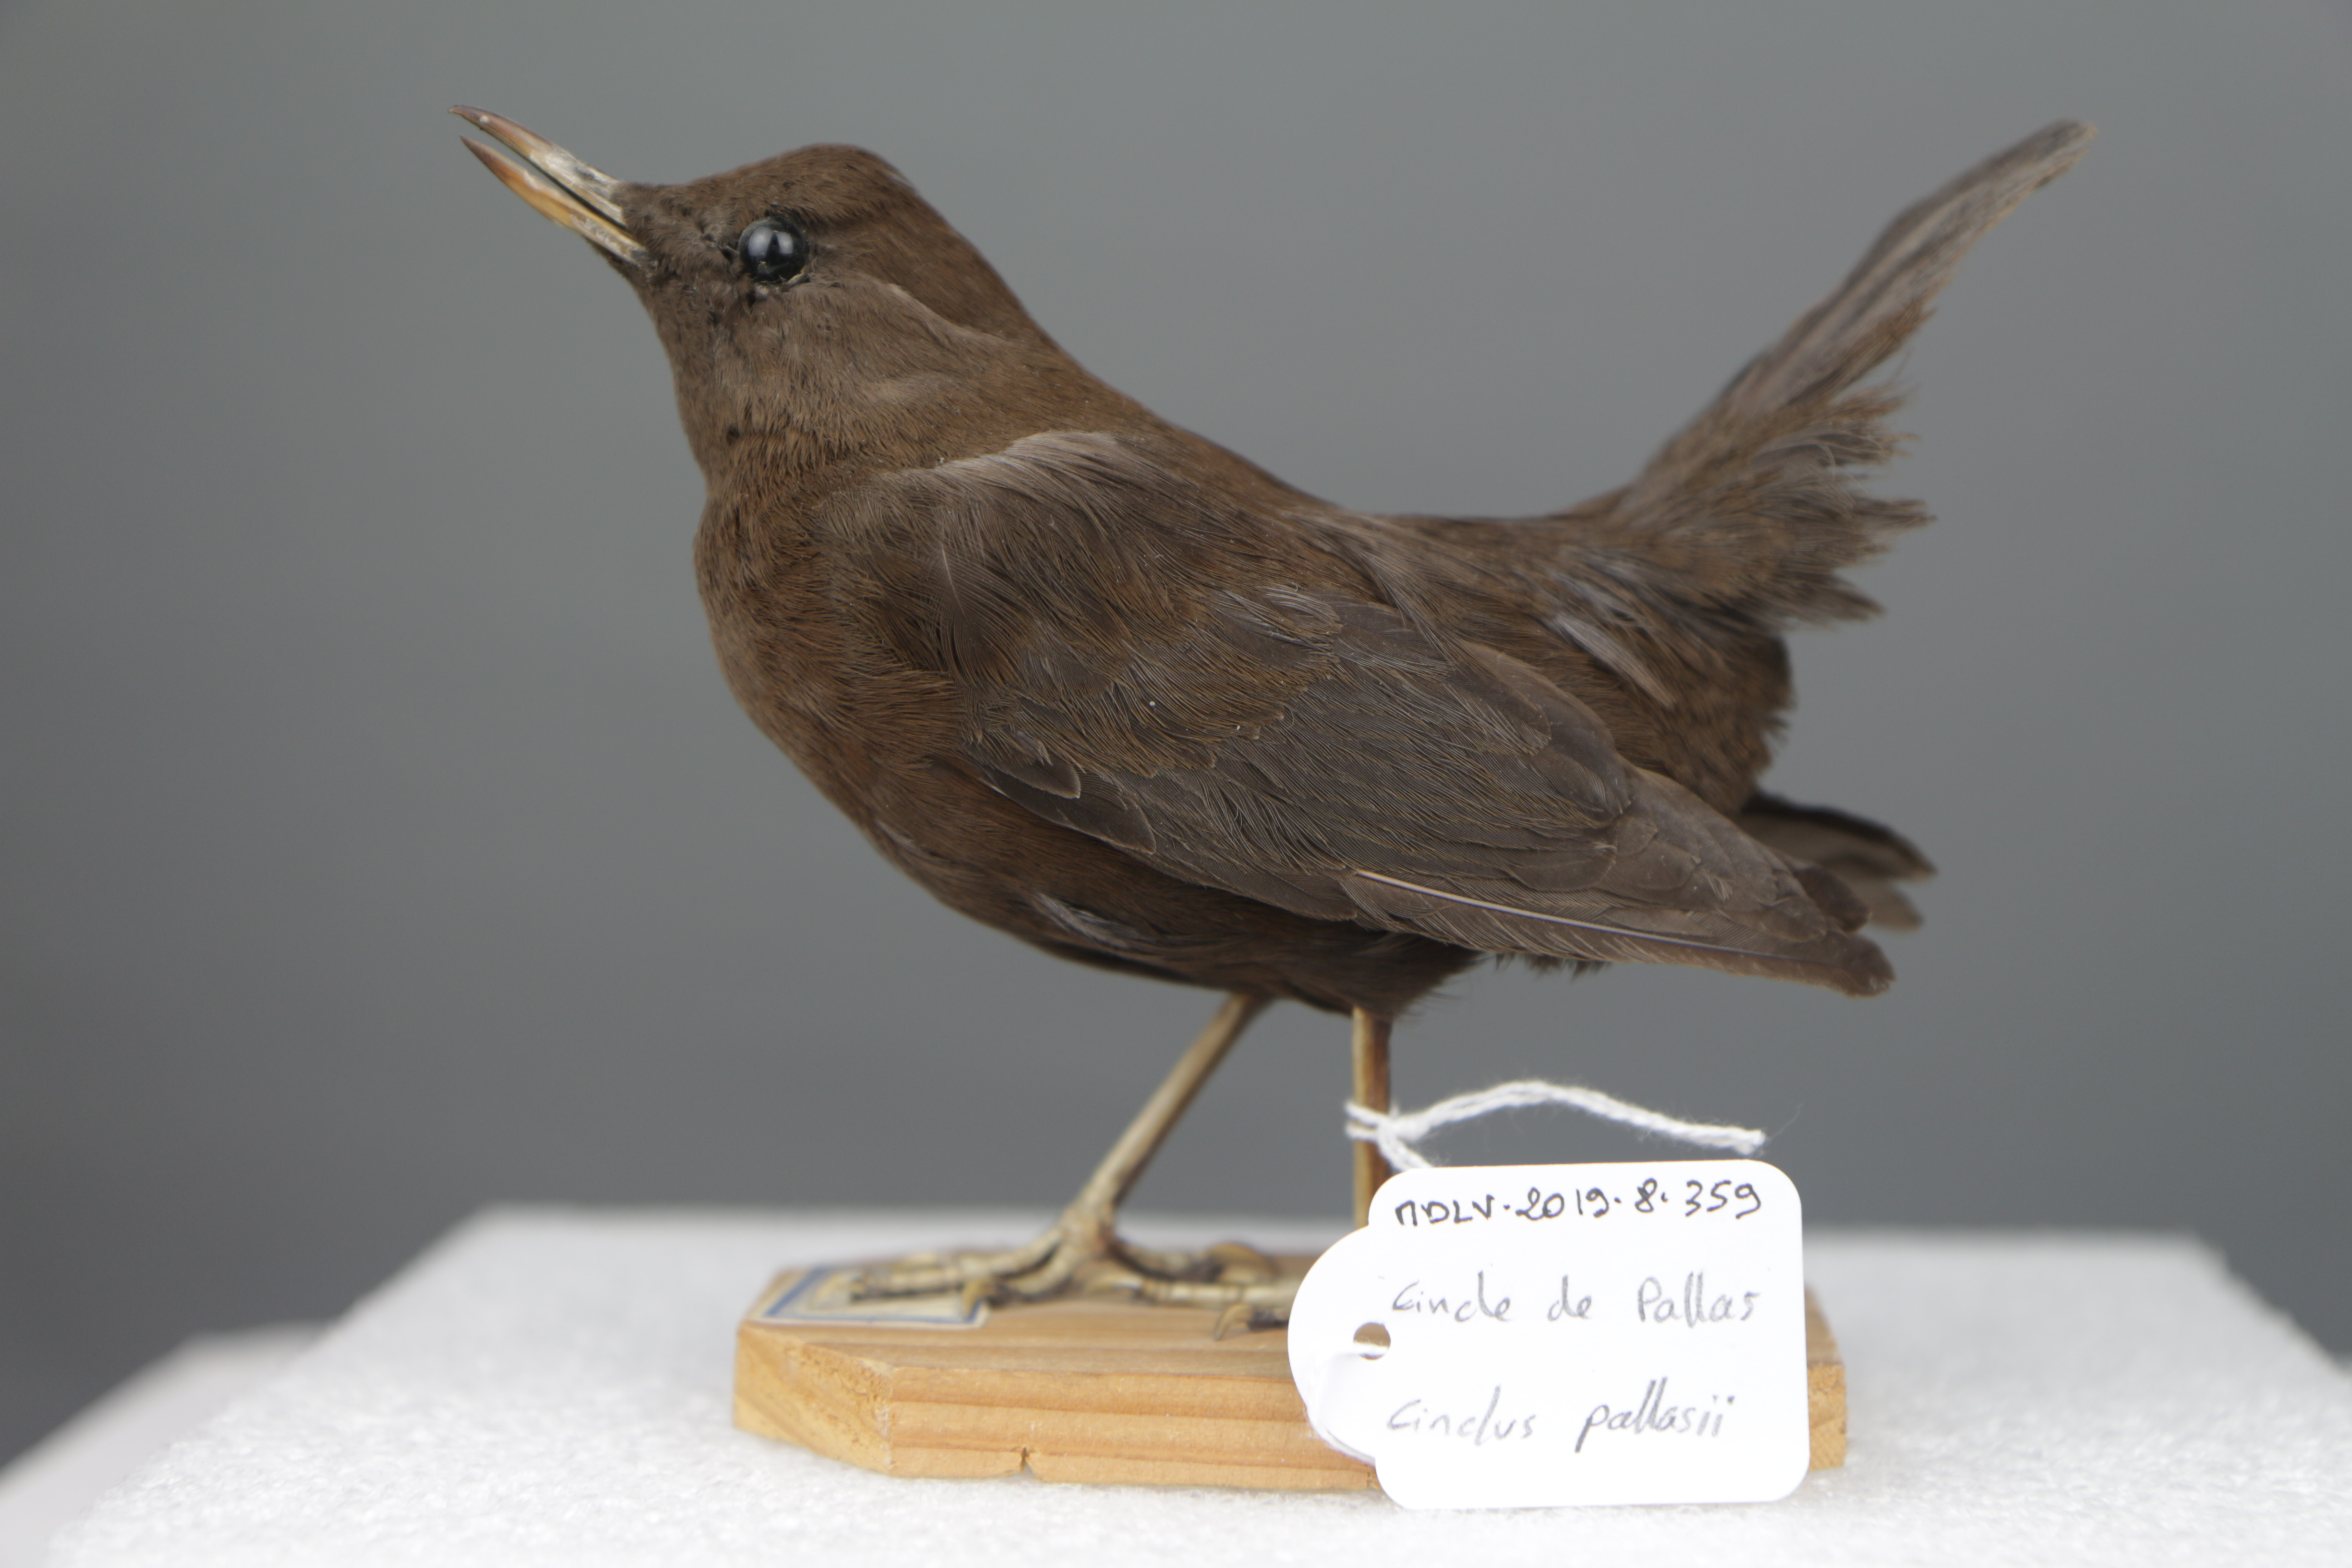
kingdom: Animalia
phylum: Chordata
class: Aves
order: Passeriformes
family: Cinclidae
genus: Cinclus
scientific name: Cinclus pallasii
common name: Brown dipper
